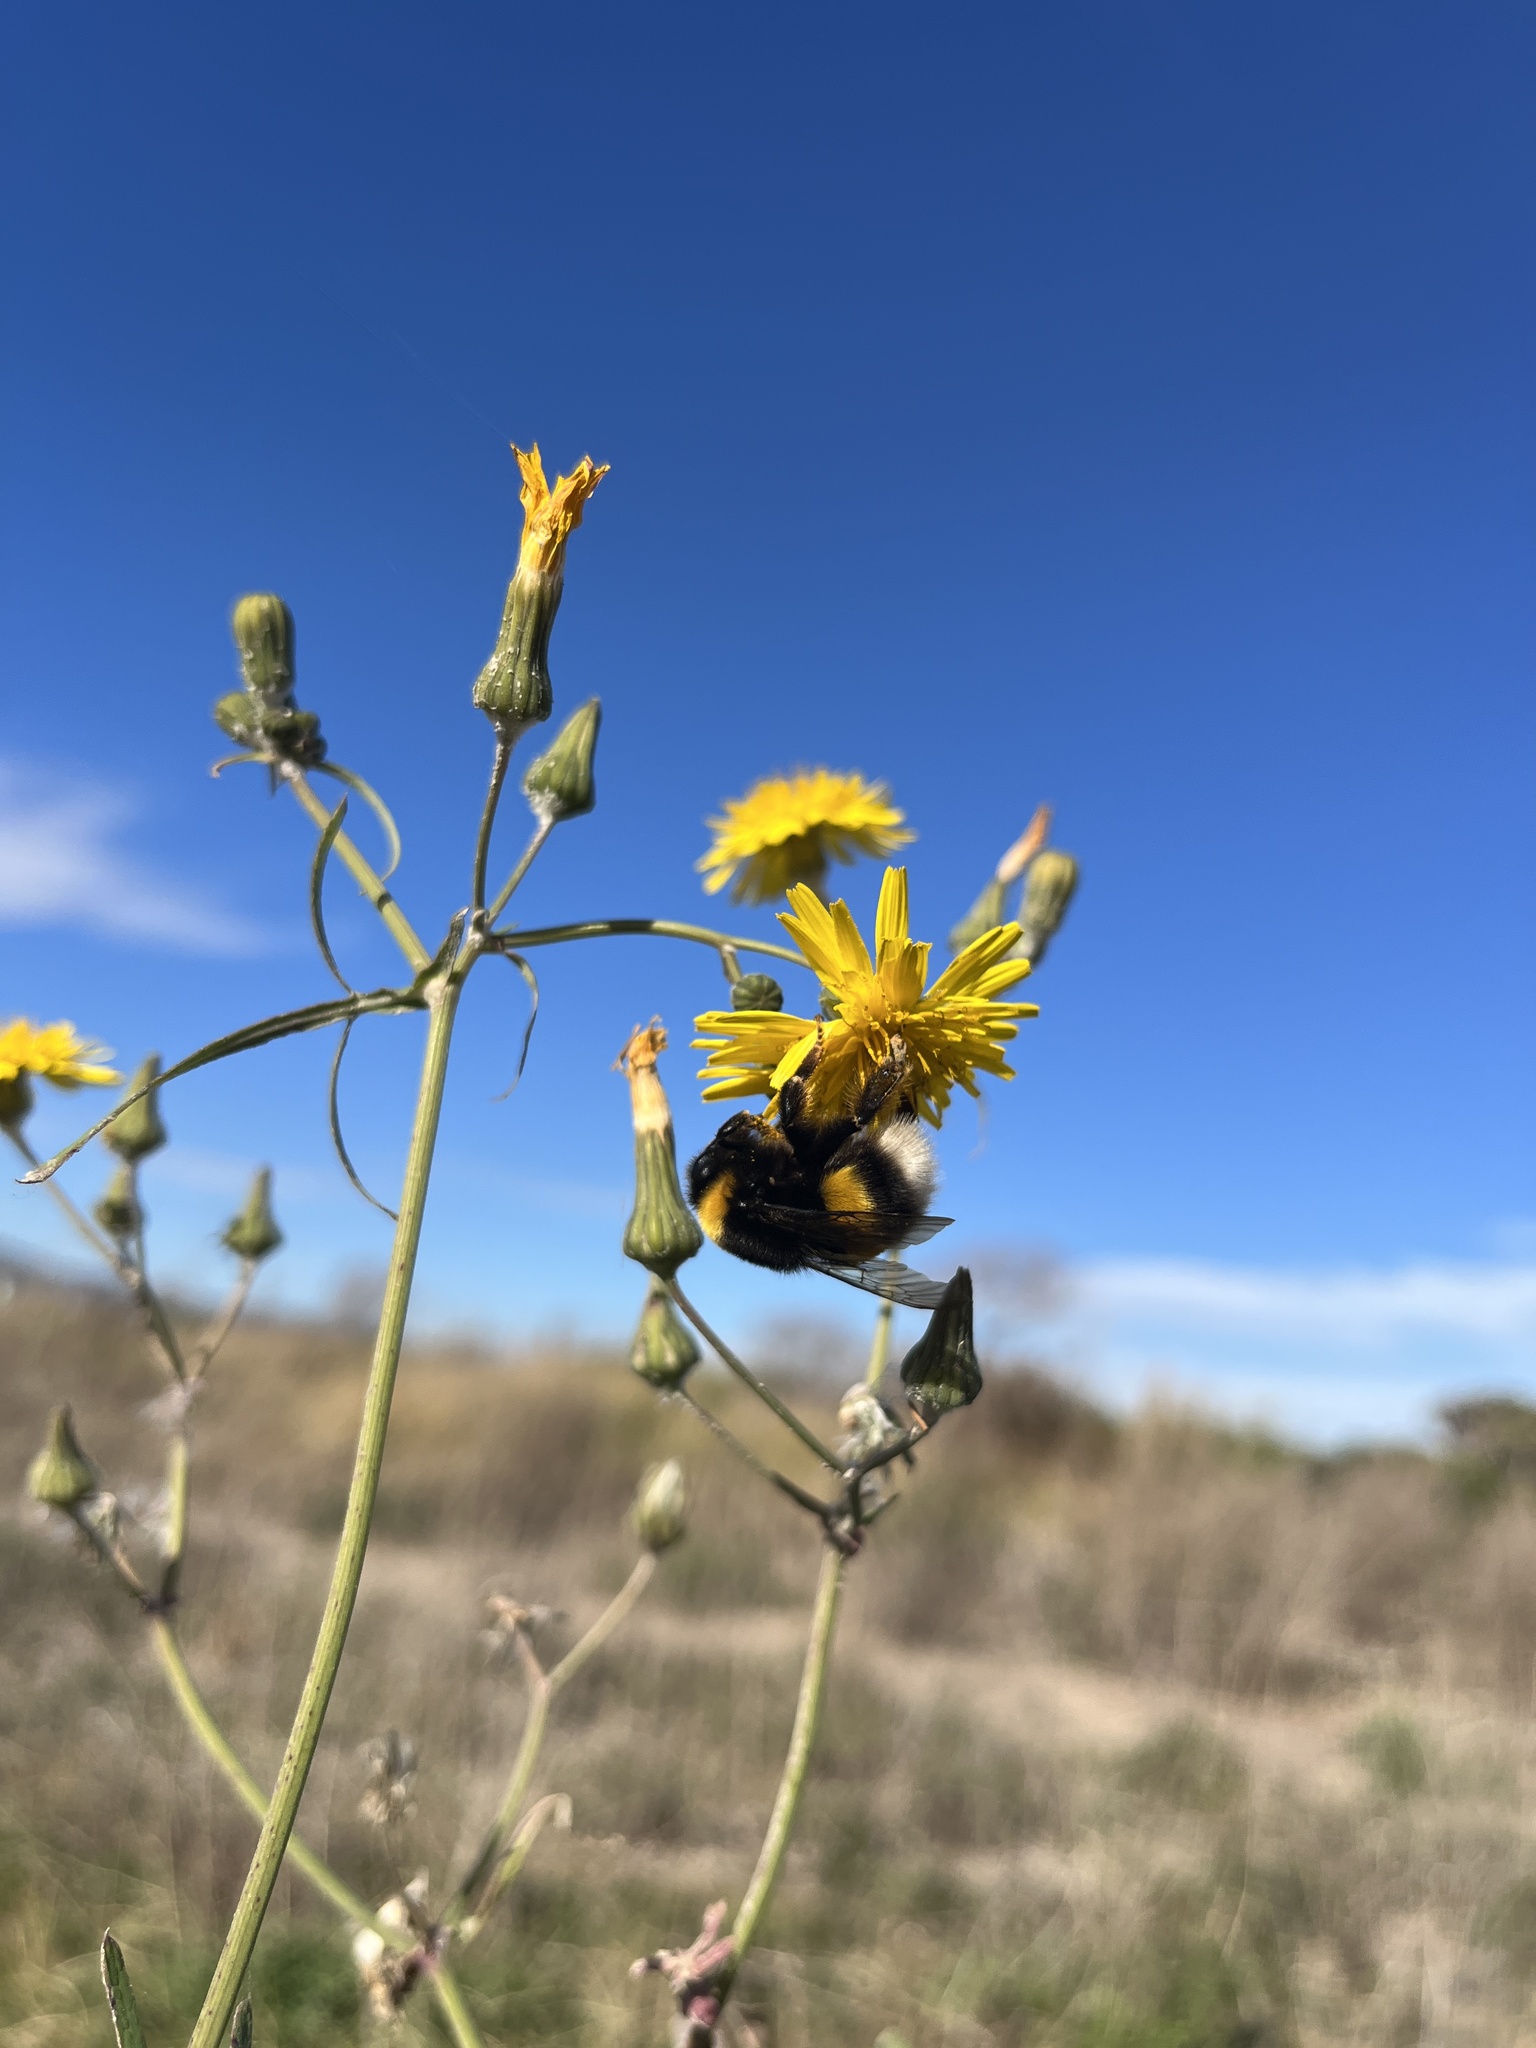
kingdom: Animalia
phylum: Arthropoda
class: Insecta
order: Hymenoptera
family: Apidae
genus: Bombus
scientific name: Bombus terrestris
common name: Buff-tailed bumblebee
